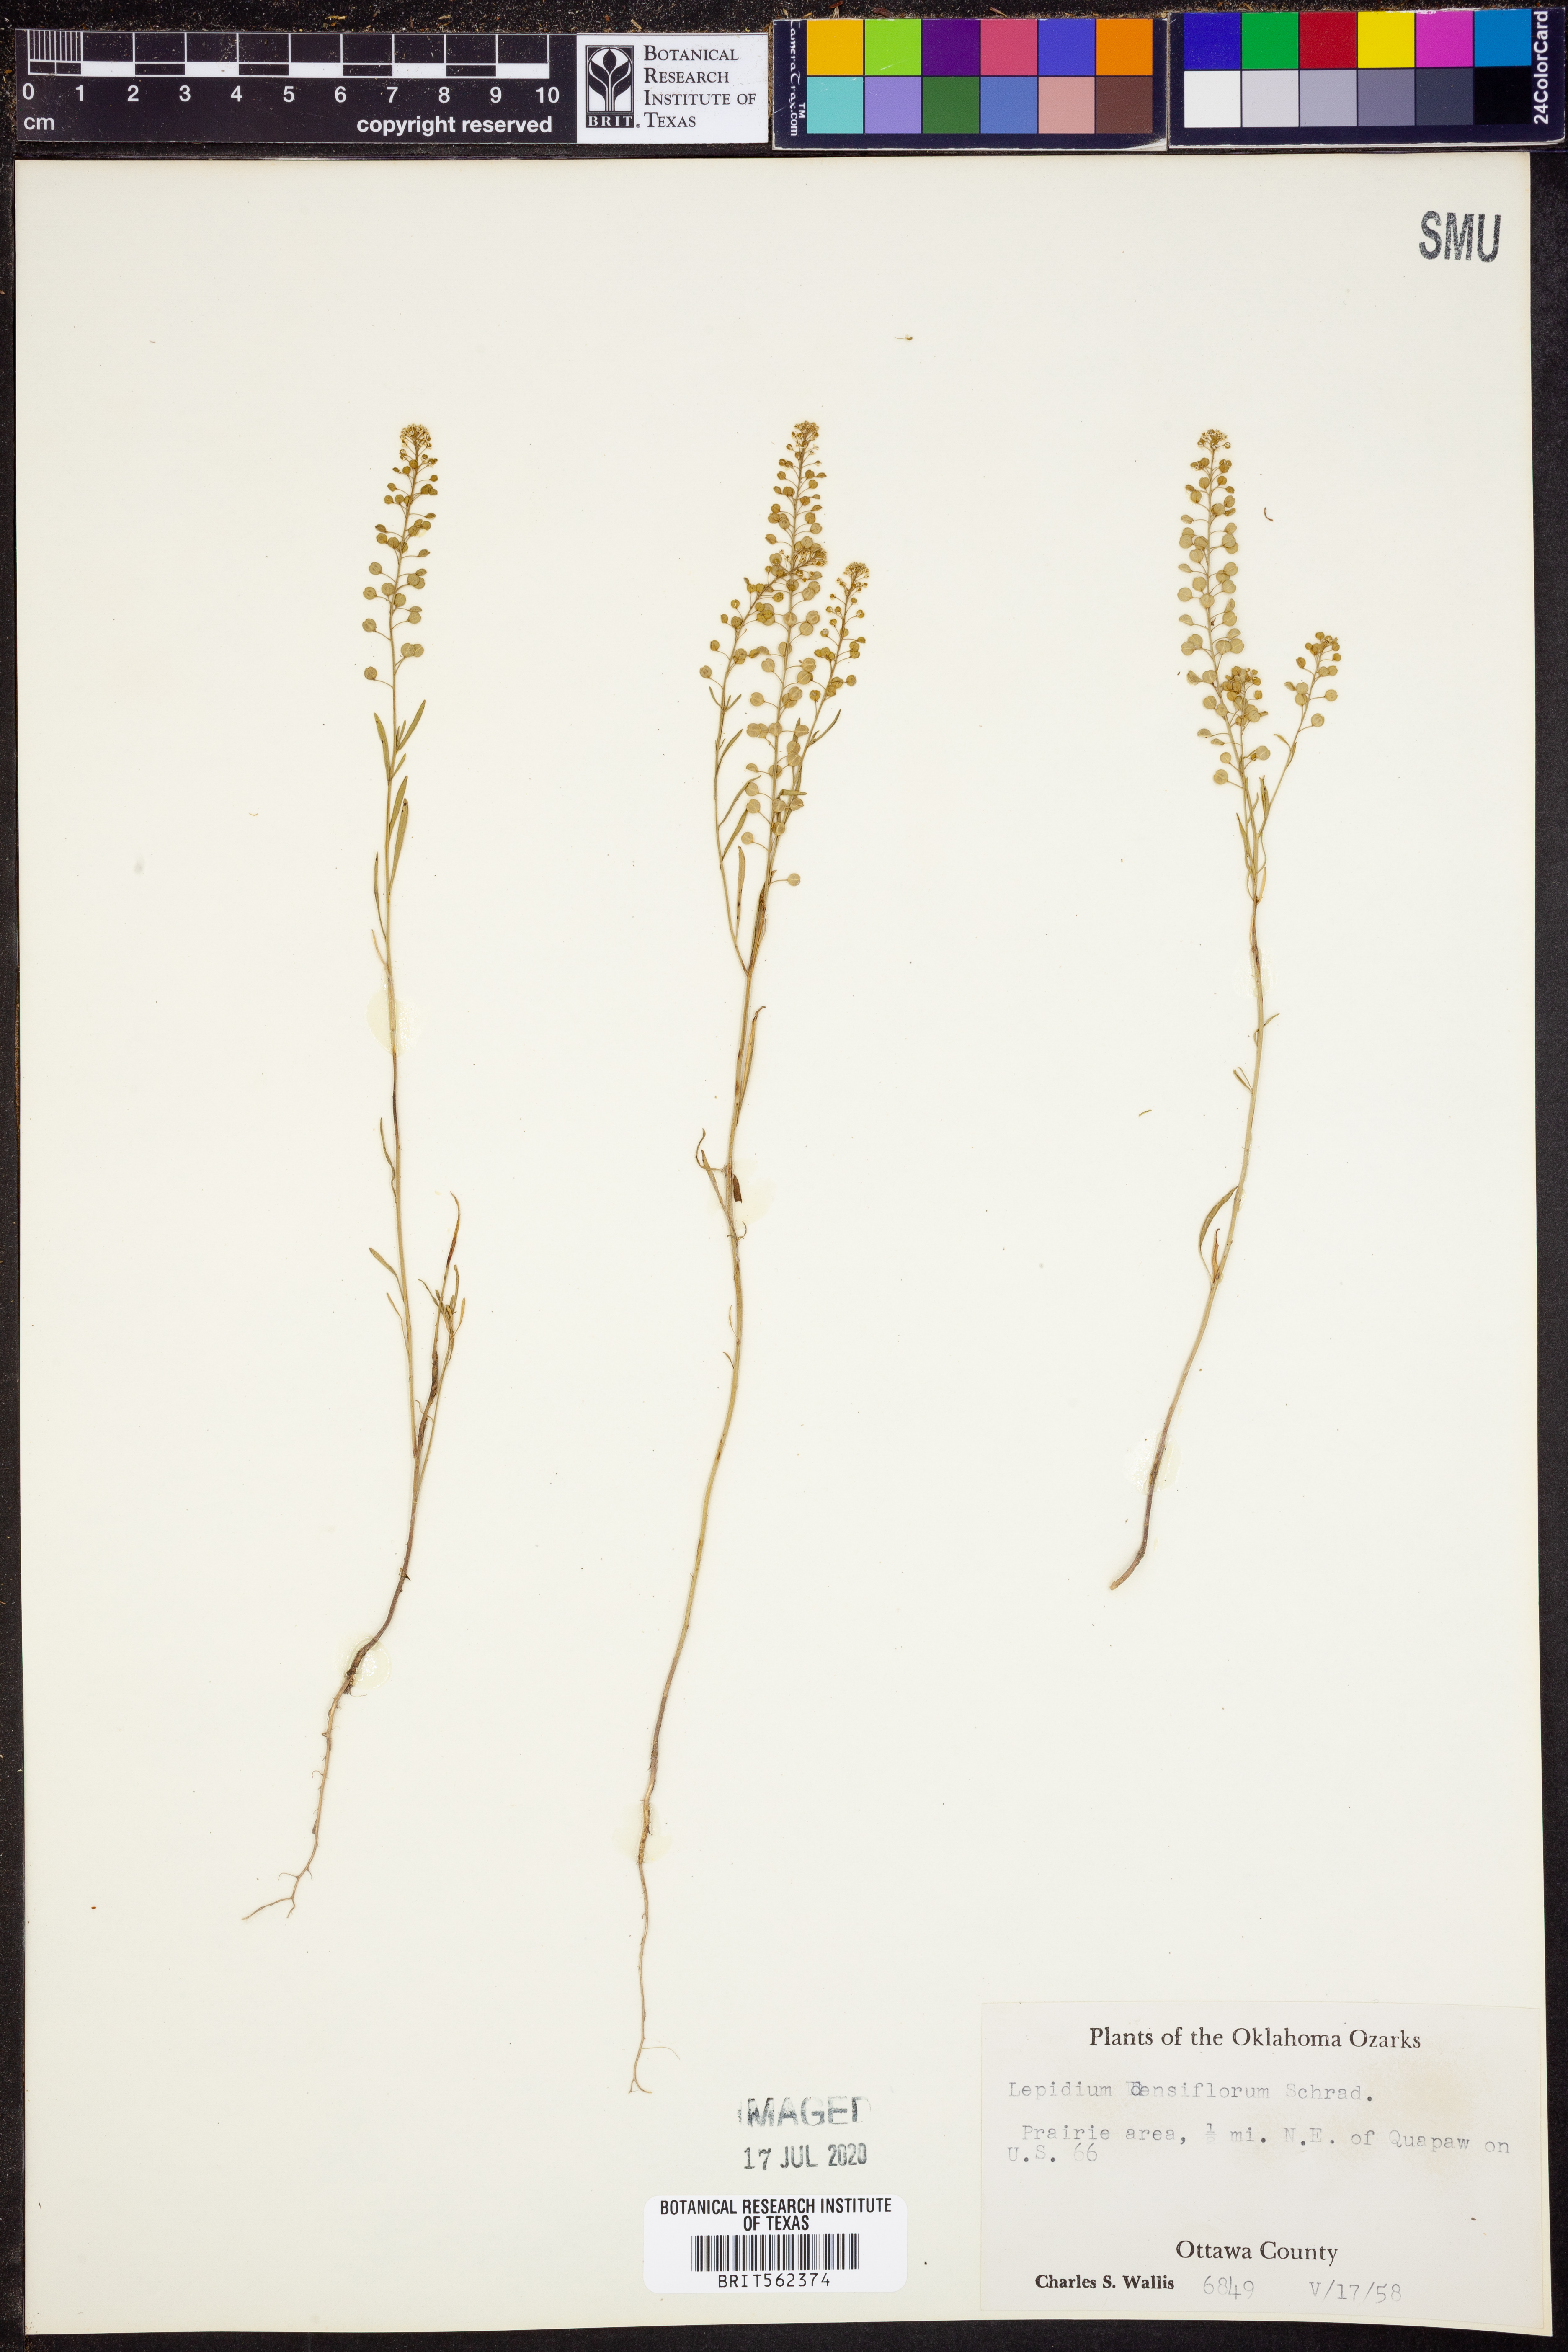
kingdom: Plantae
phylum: Tracheophyta
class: Magnoliopsida
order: Brassicales
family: Brassicaceae
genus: Lepidium
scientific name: Lepidium densiflorum
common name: Miner's pepperwort
